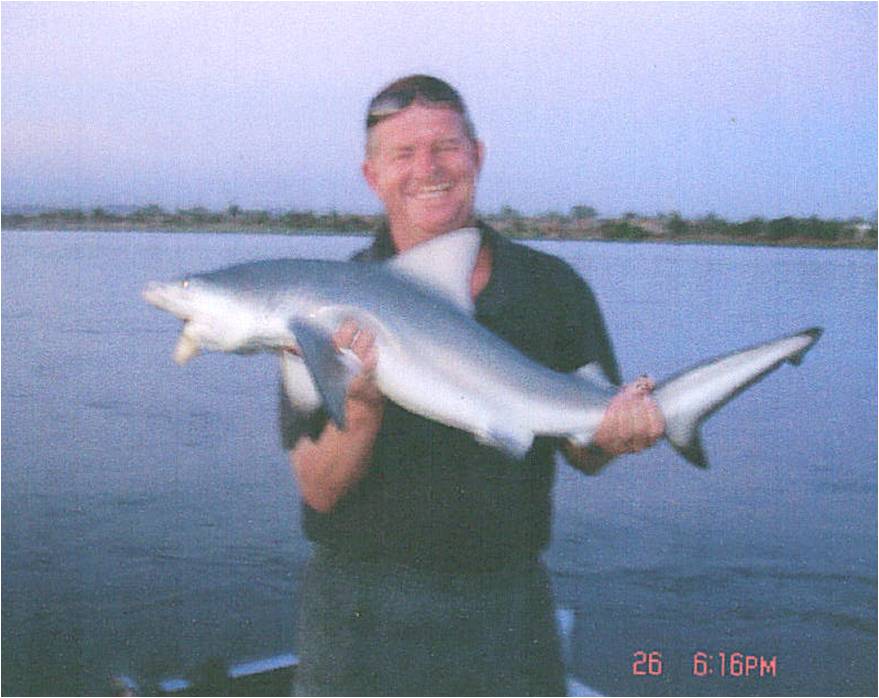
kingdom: Animalia
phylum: Chordata
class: Elasmobranchii
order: Carcharhiniformes
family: Carcharhinidae
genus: Carcharhinus
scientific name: Carcharhinus leucas
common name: Bull shark
